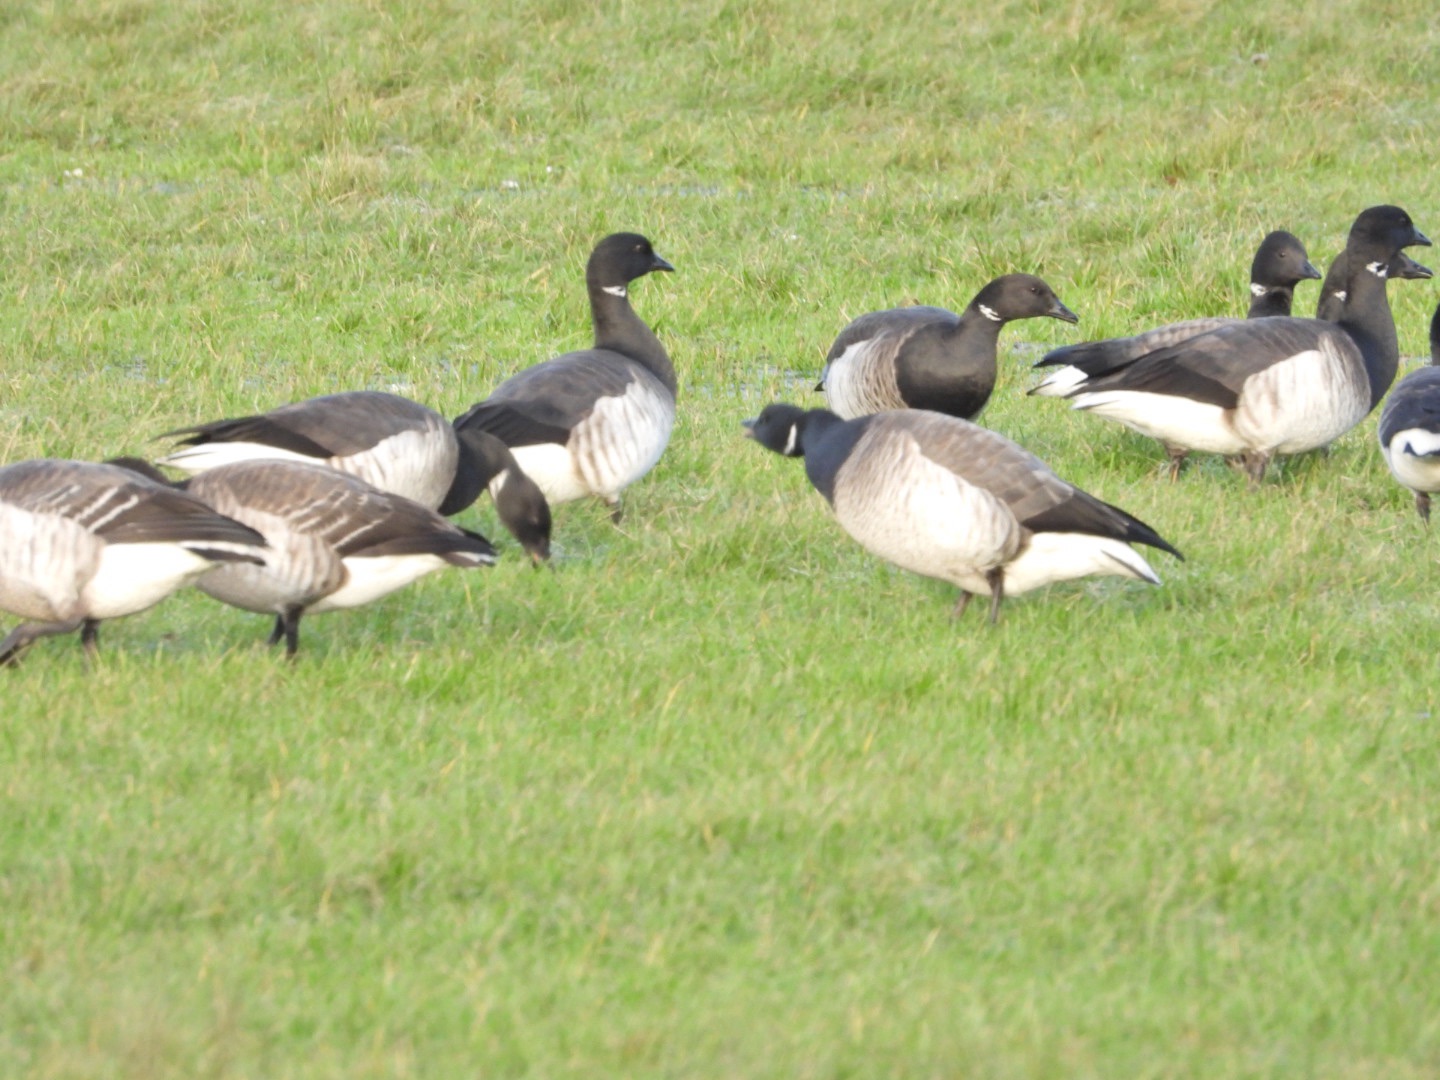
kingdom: Animalia
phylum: Chordata
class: Aves
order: Anseriformes
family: Anatidae
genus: Branta
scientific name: Branta bernicla
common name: Lysbuget knortegås
